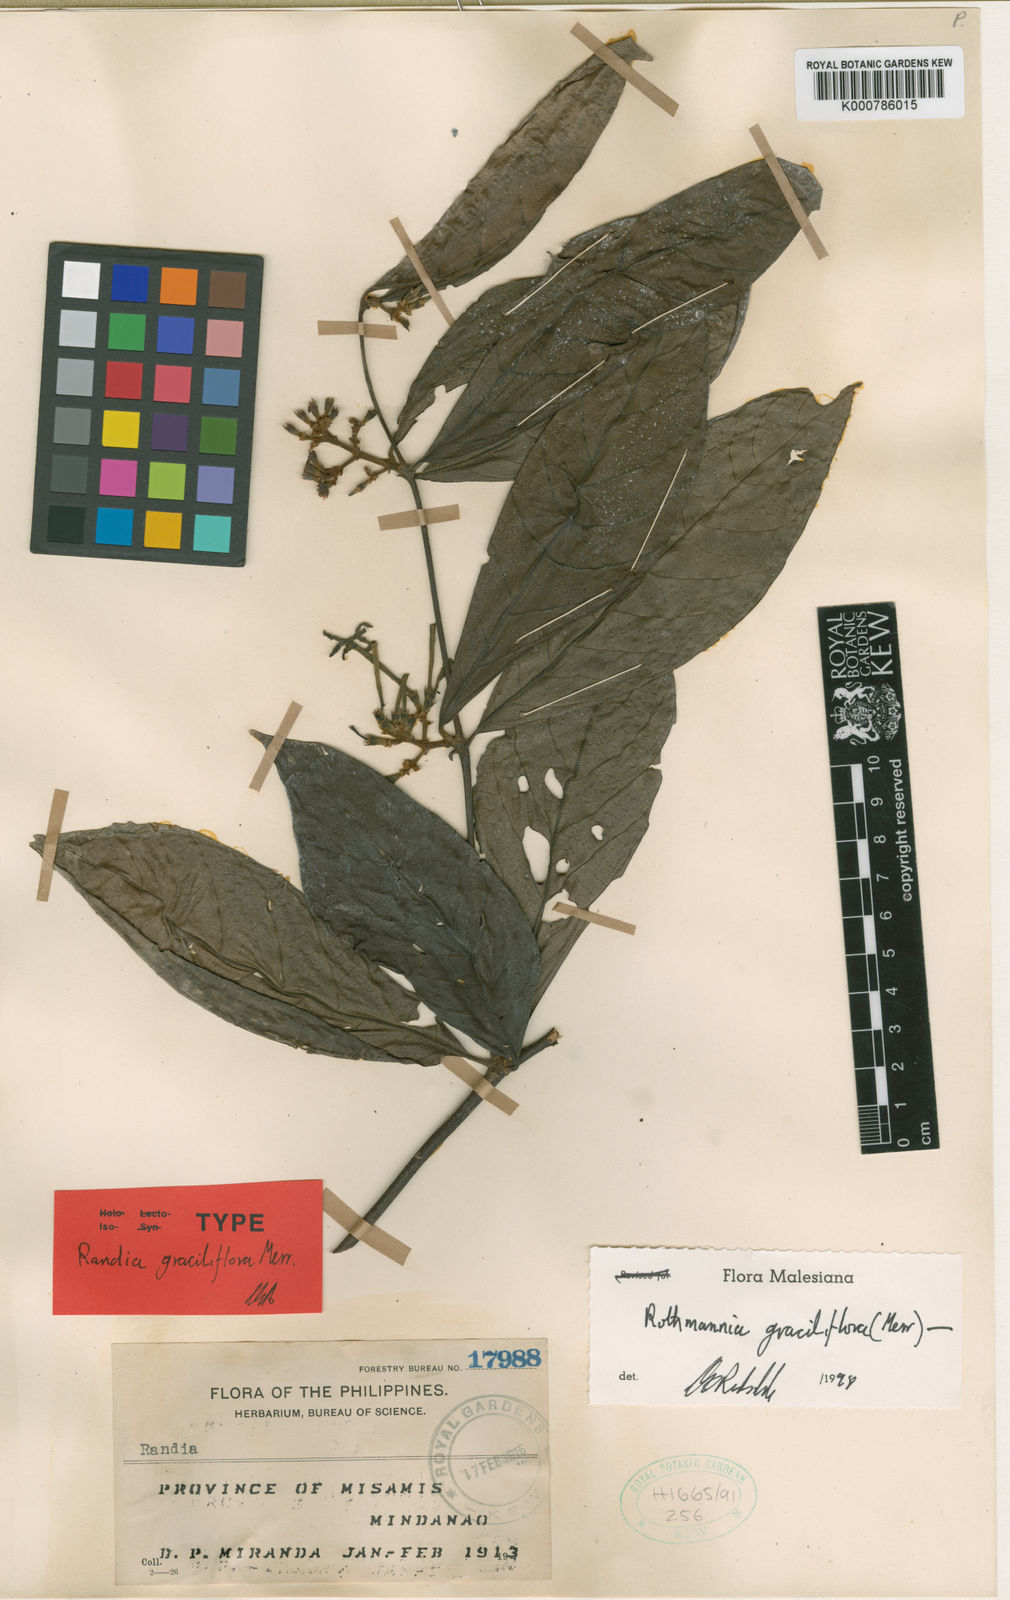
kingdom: Plantae
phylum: Tracheophyta
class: Magnoliopsida
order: Gentianales
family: Rubiaceae
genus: Ridsdalea
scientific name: Ridsdalea graciliflora
